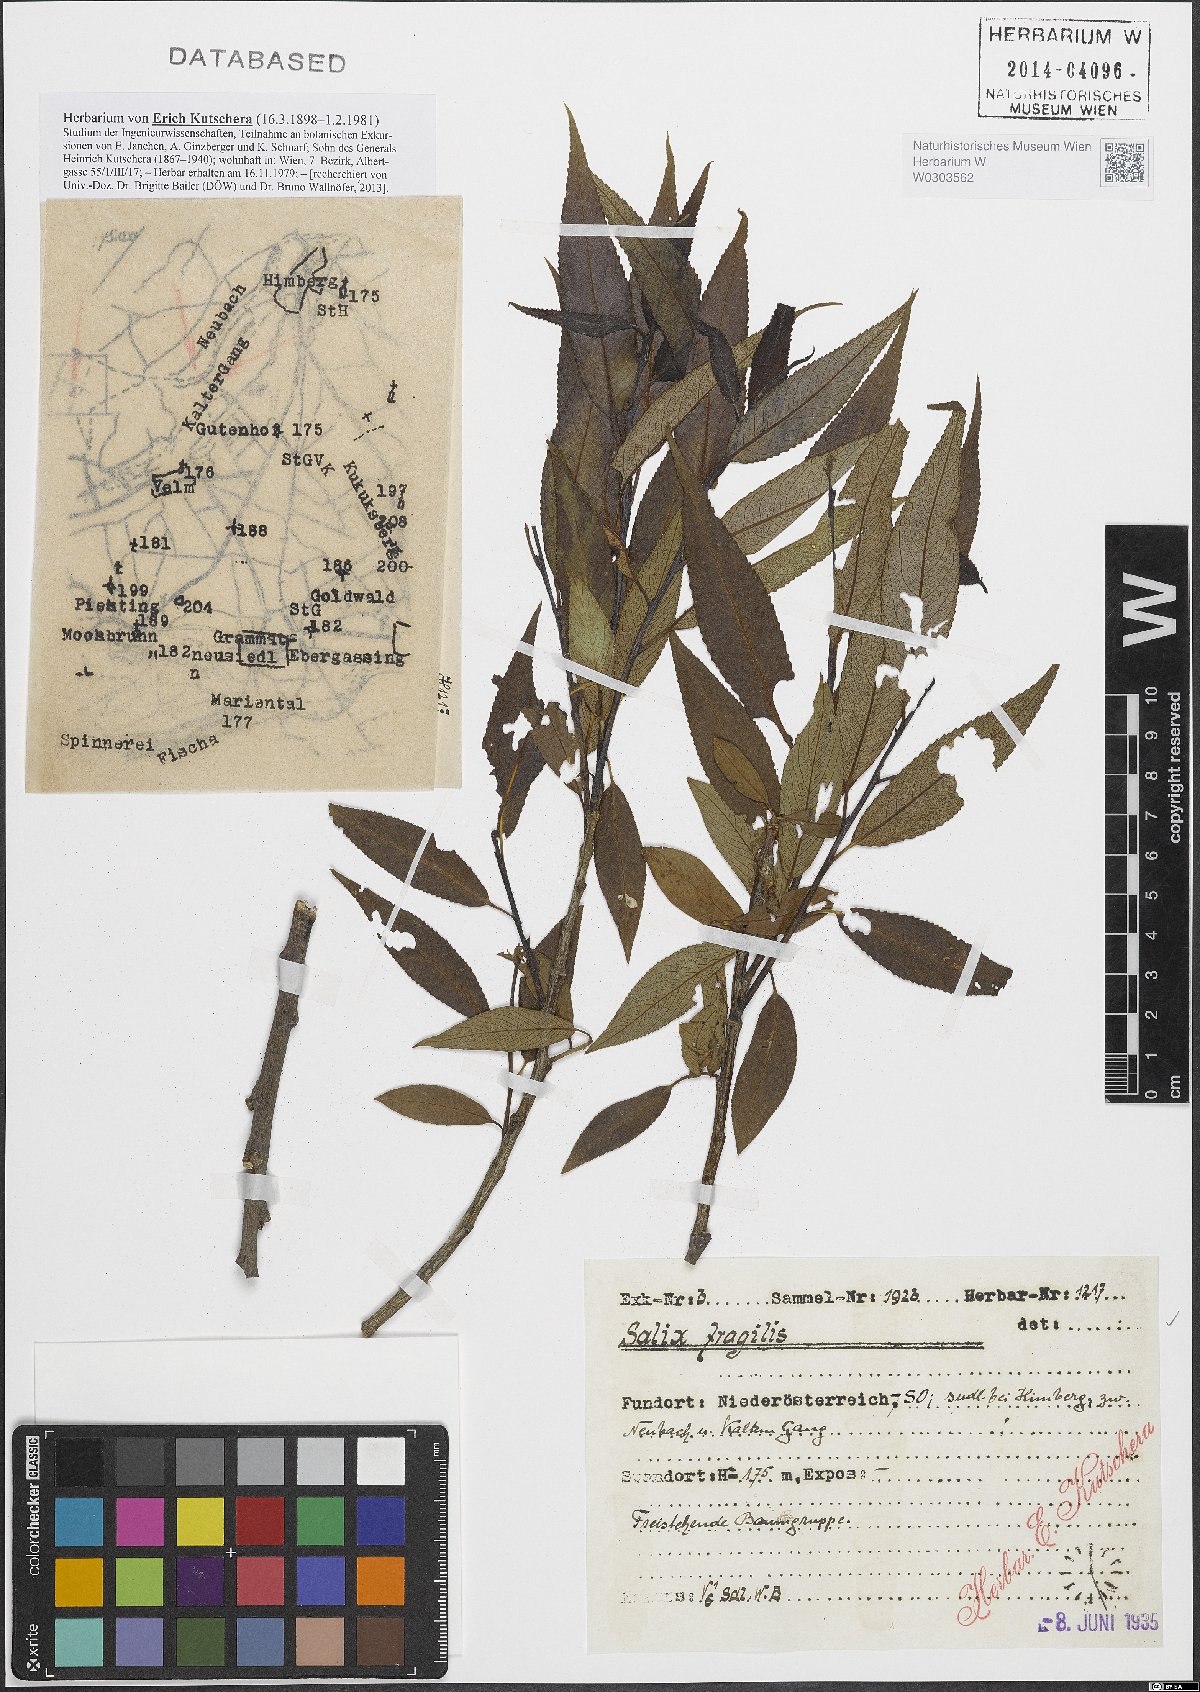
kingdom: Plantae
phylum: Tracheophyta
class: Magnoliopsida
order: Malpighiales
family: Salicaceae
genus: Salix
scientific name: Salix fragilis
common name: Crack willow
